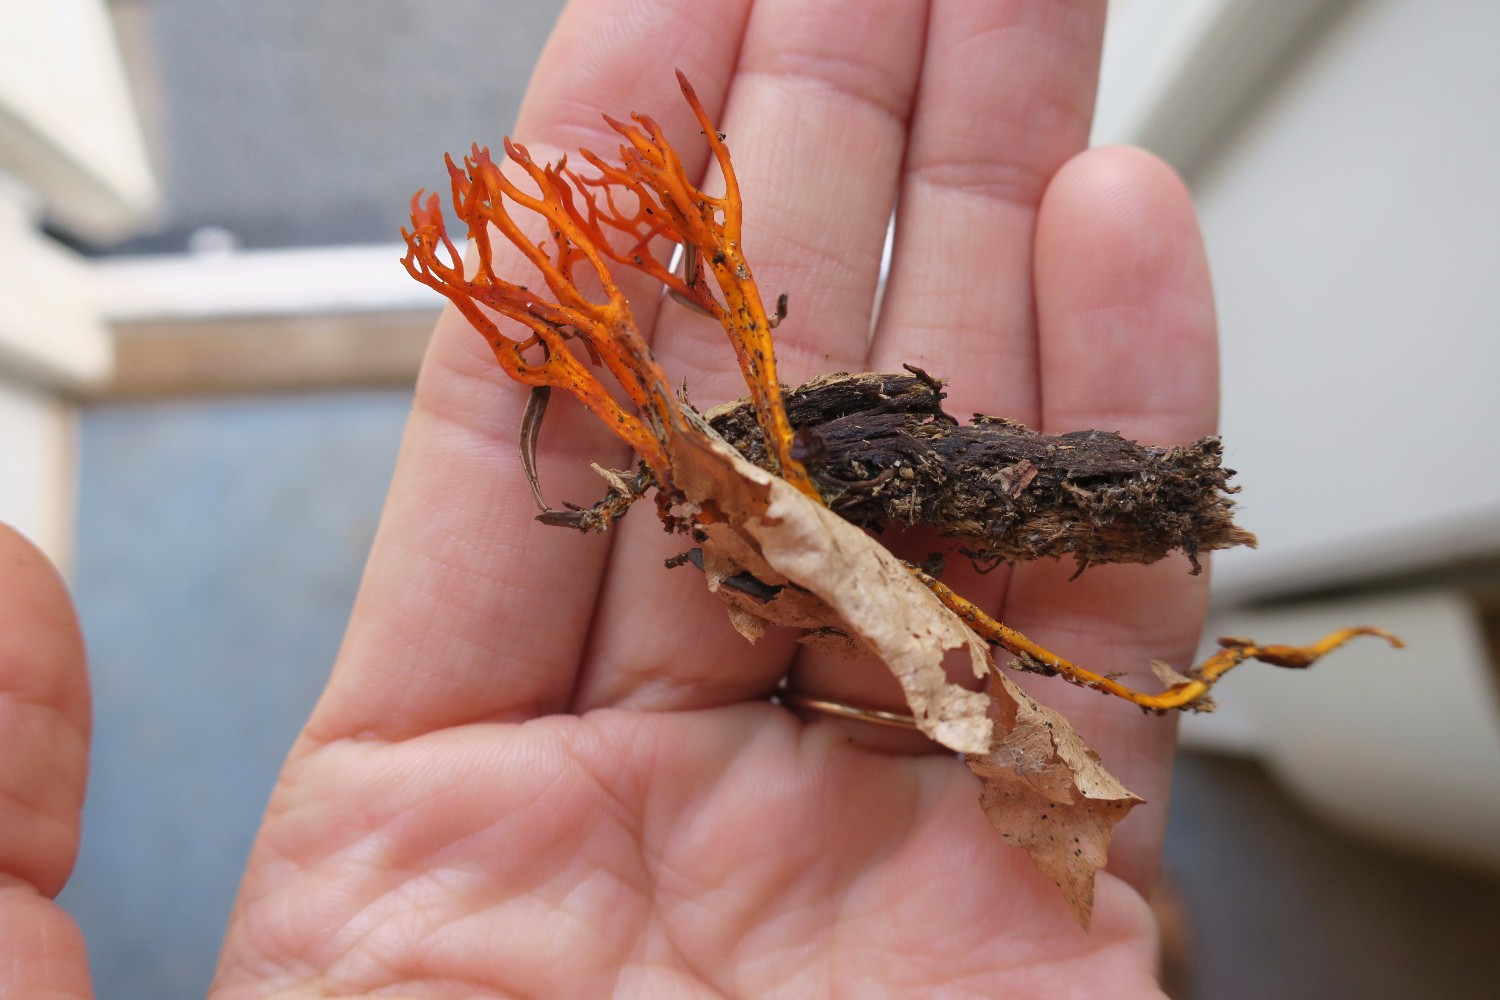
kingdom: Fungi
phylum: Basidiomycota
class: Dacrymycetes
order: Dacrymycetales
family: Dacrymycetaceae
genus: Calocera
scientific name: Calocera viscosa
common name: almindelig guldgaffel
